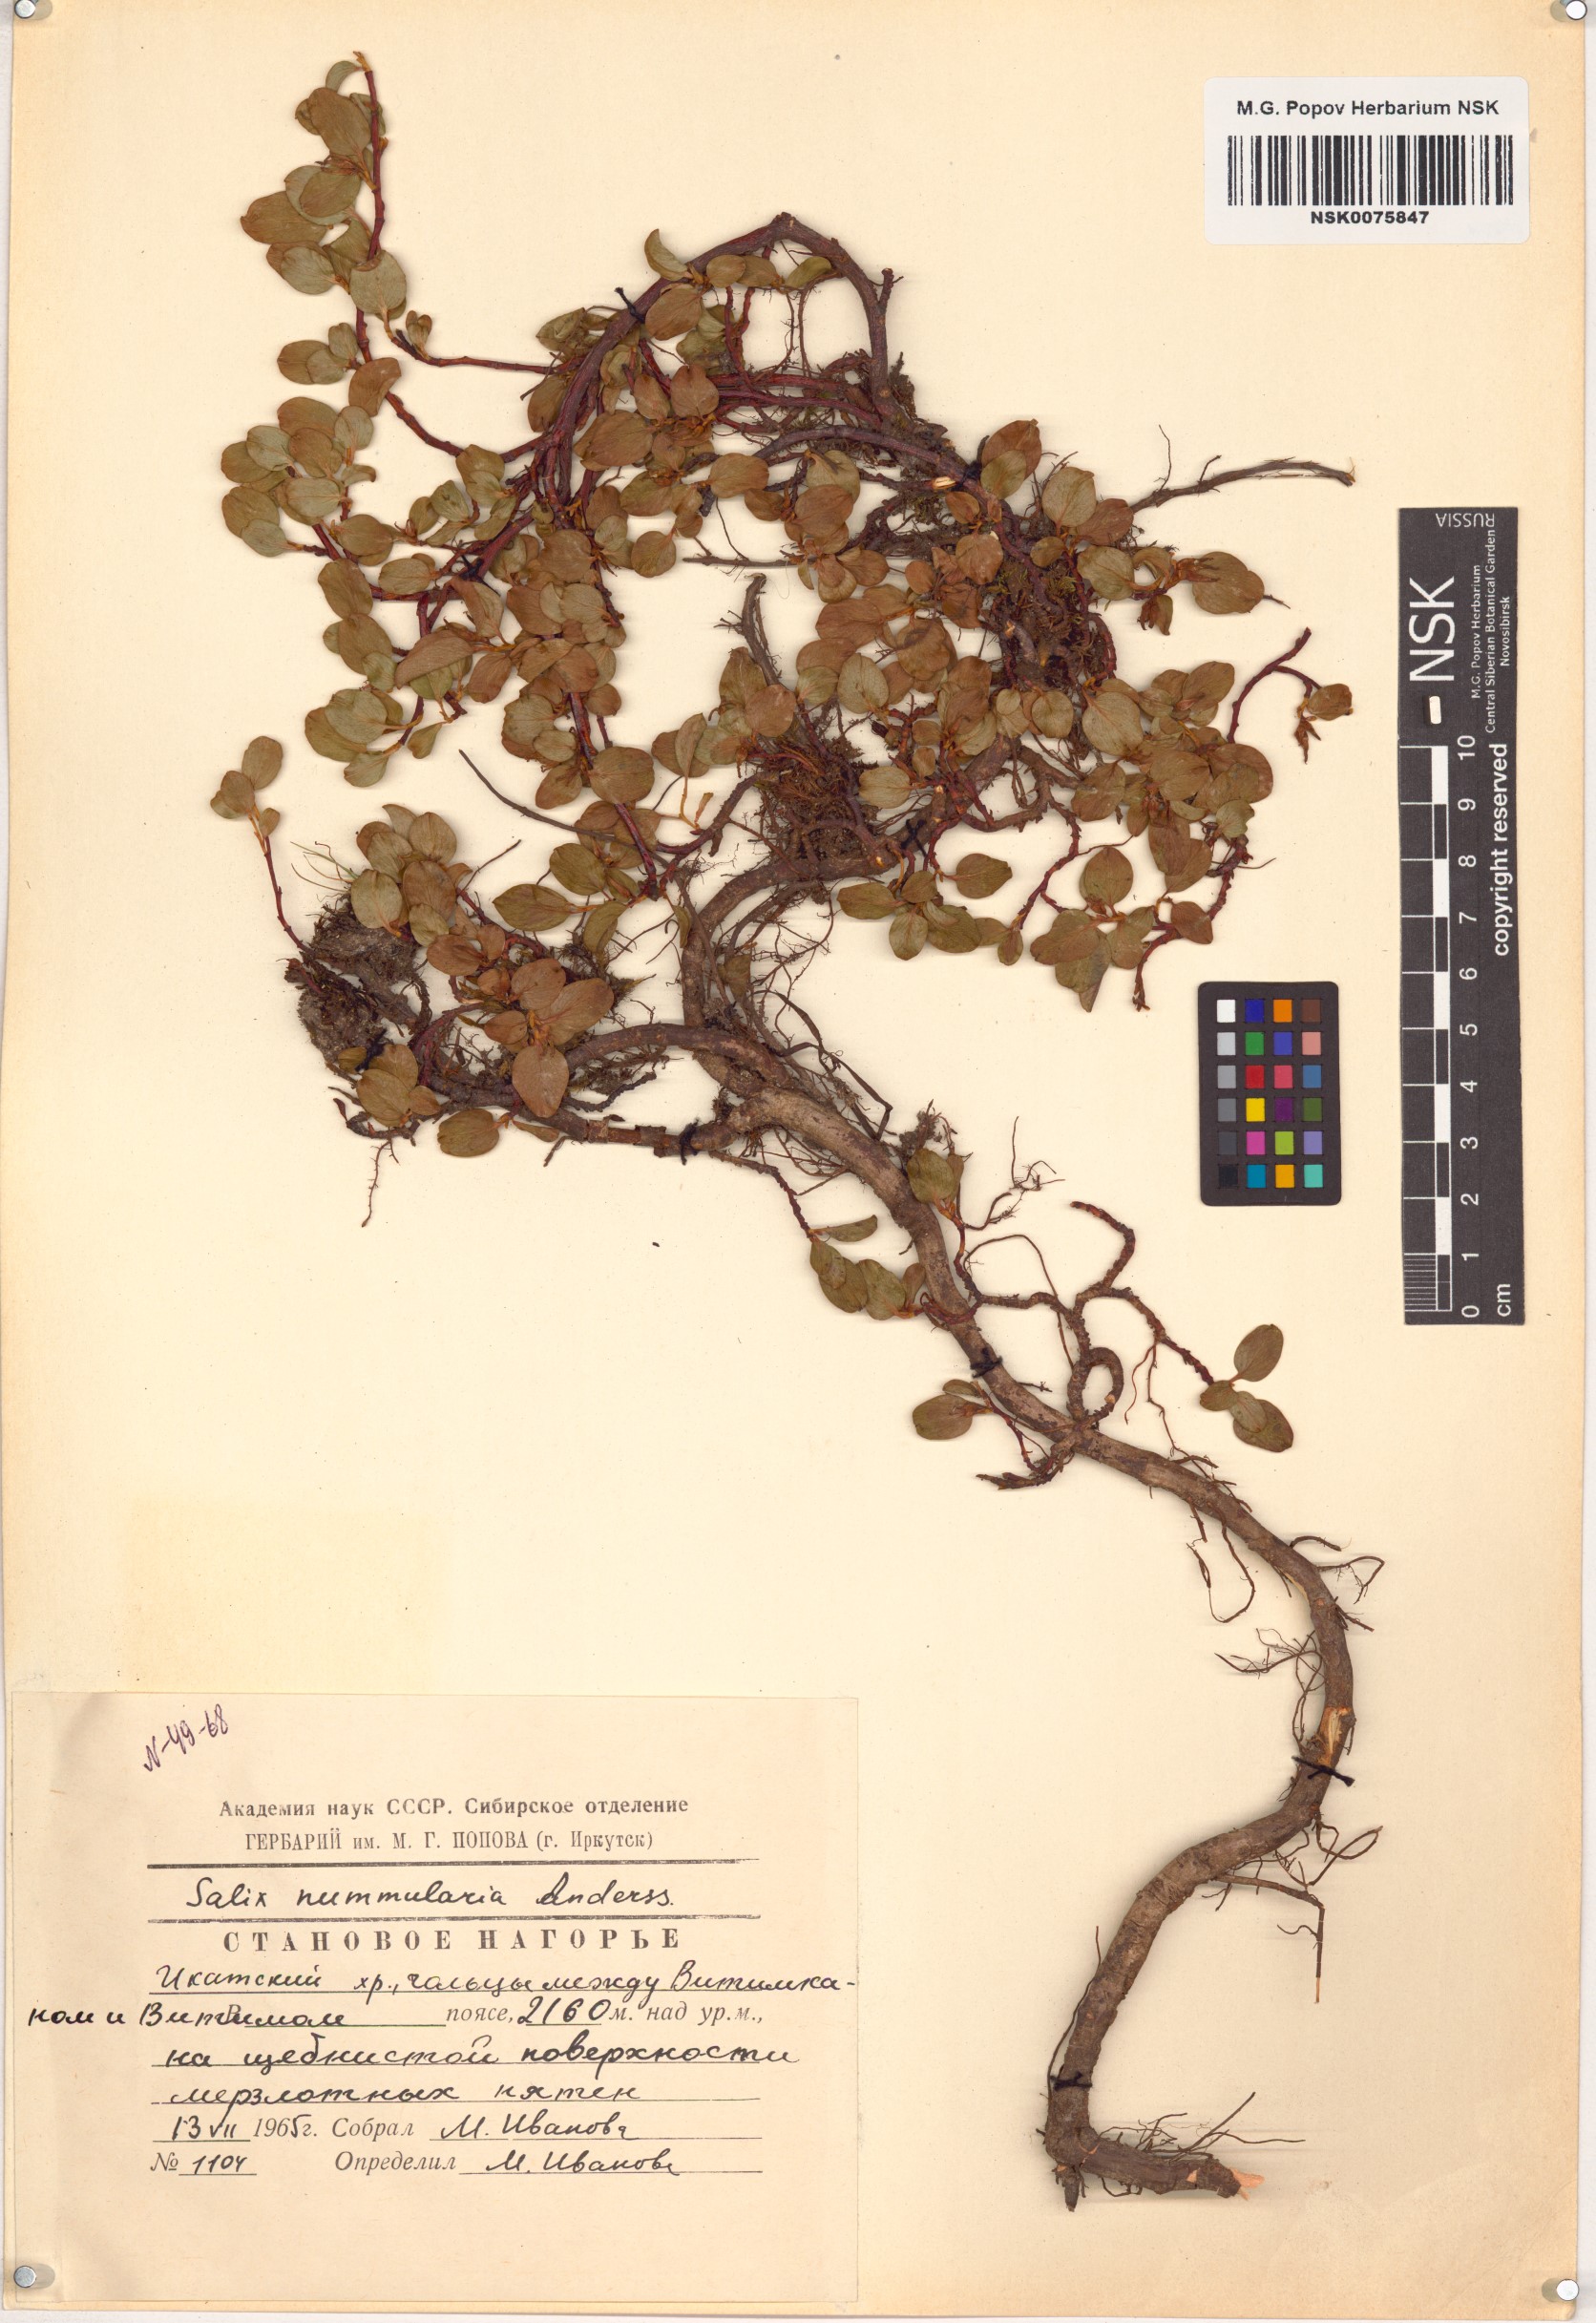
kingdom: Plantae
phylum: Tracheophyta
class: Magnoliopsida
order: Malpighiales
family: Salicaceae
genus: Salix
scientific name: Salix nummularia
